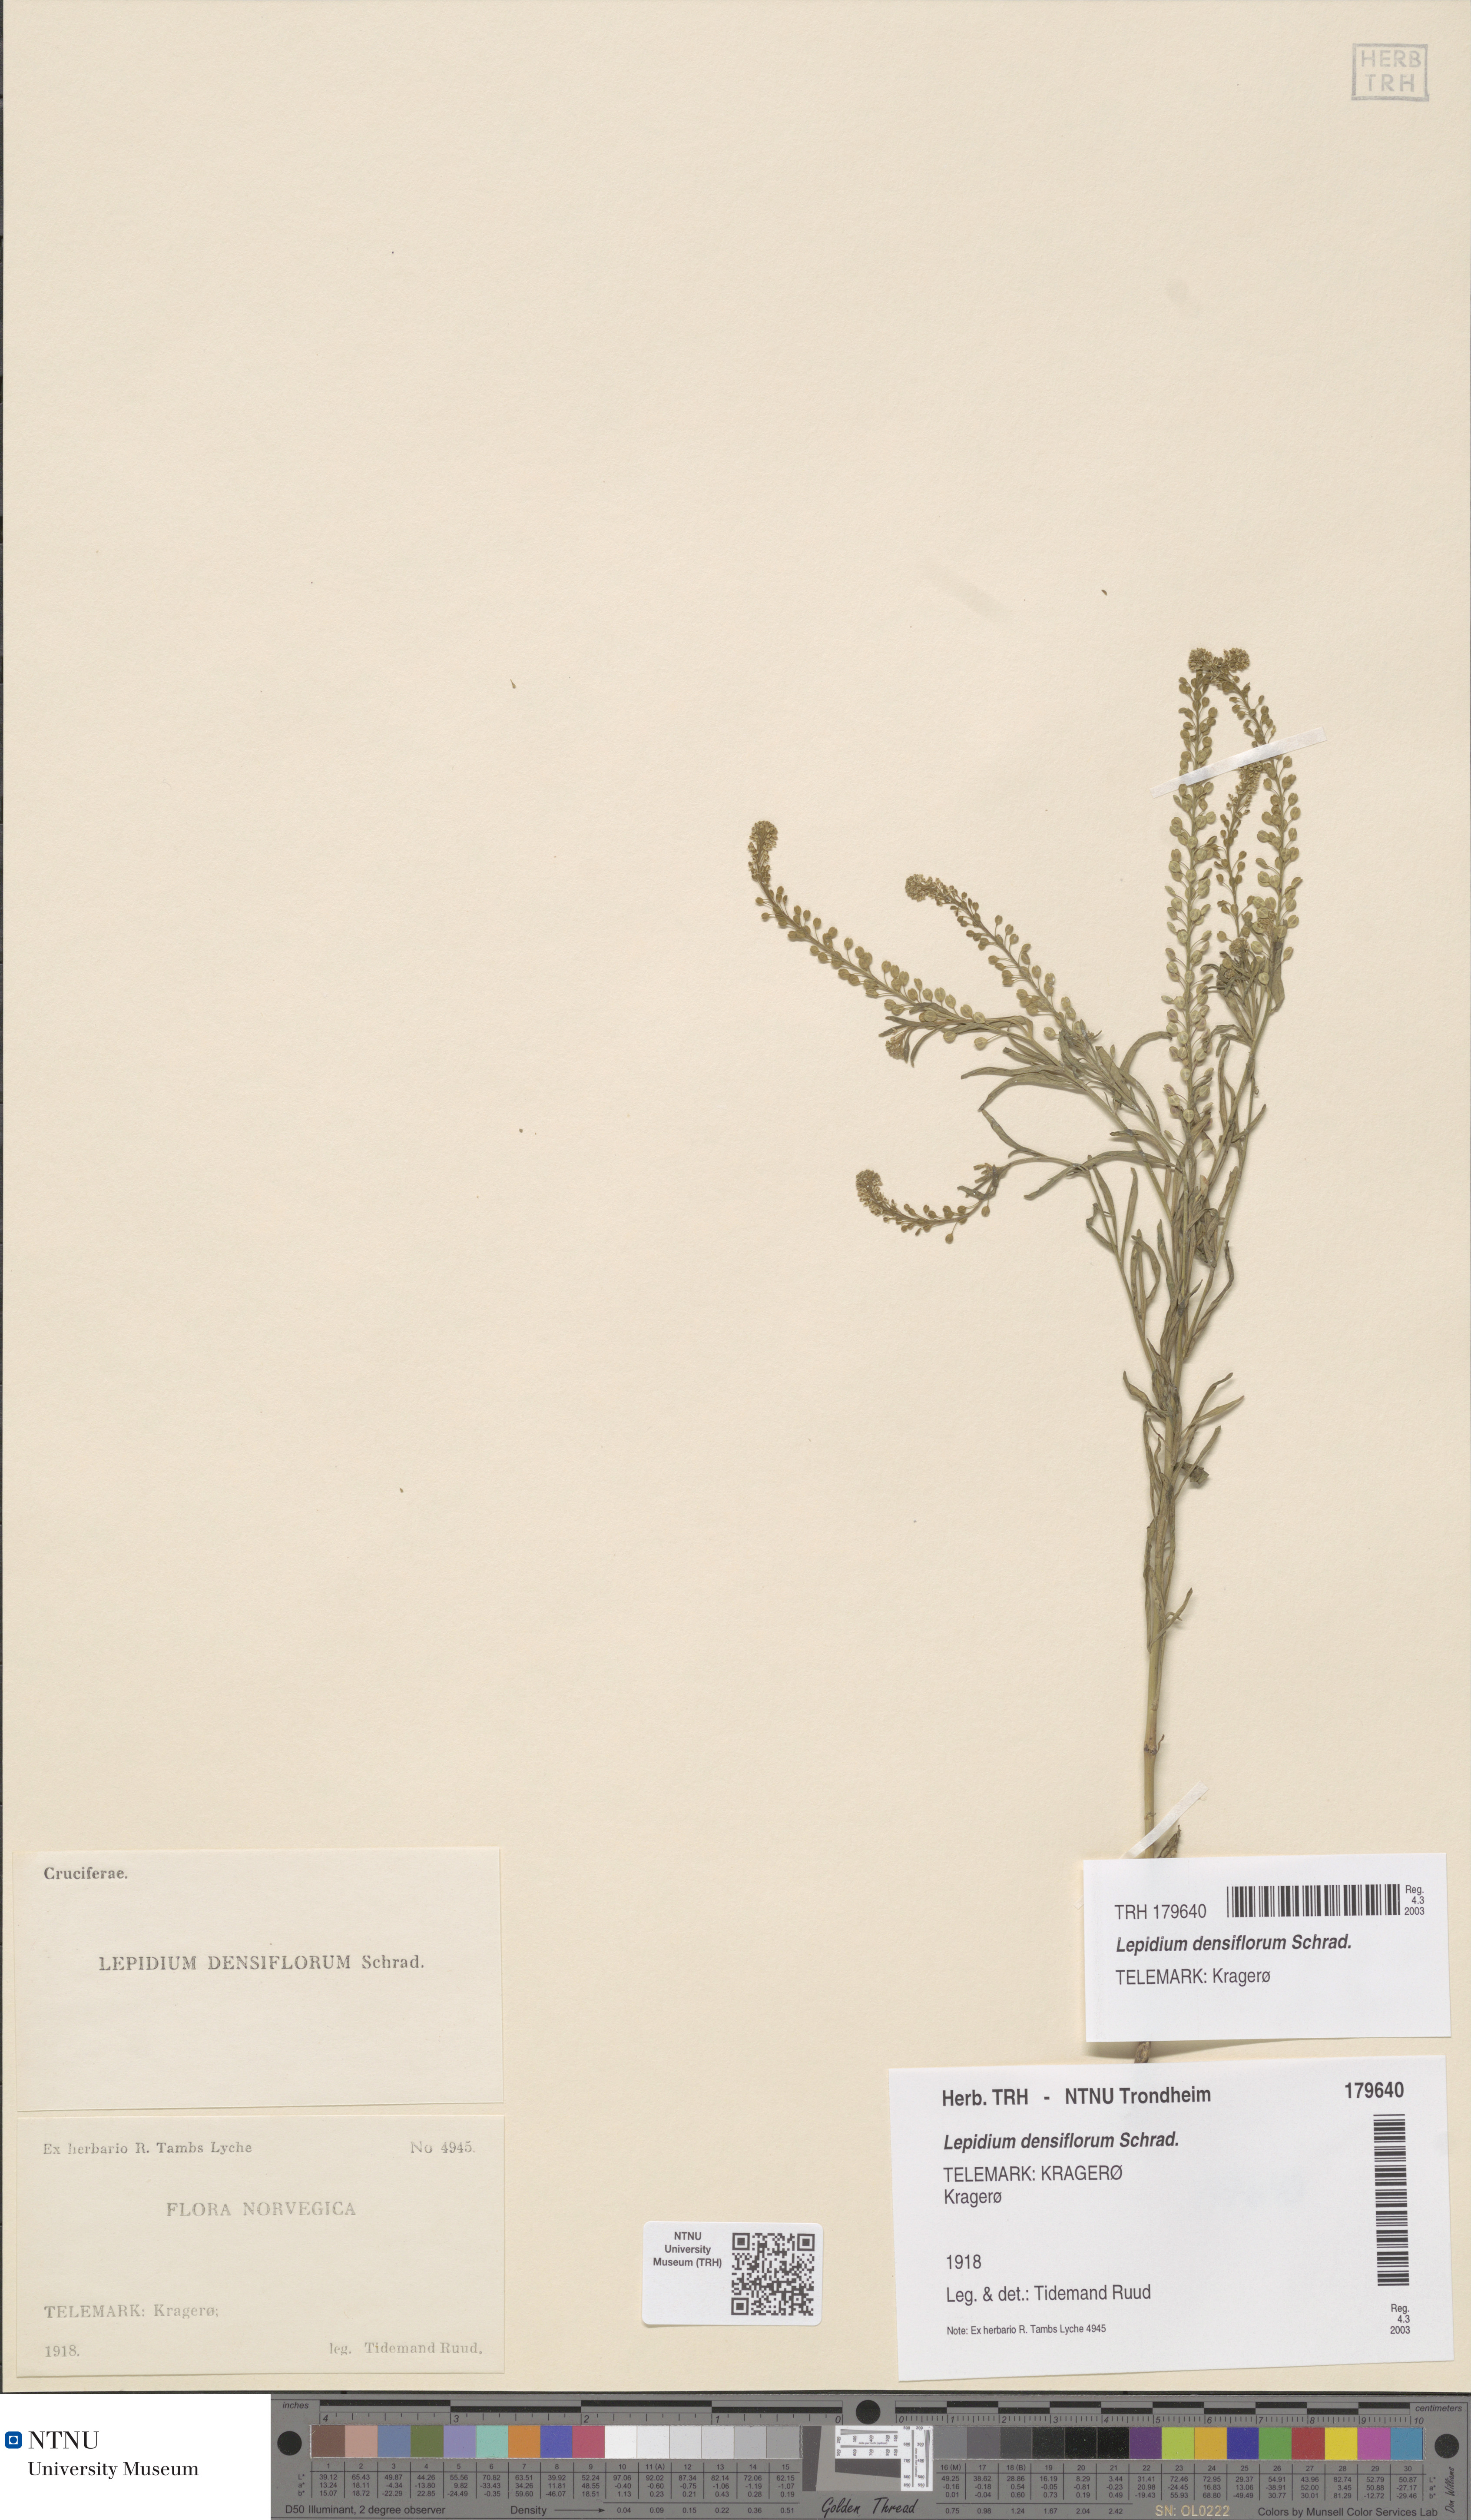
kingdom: Plantae
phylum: Tracheophyta
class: Magnoliopsida
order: Brassicales
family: Brassicaceae
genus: Lepidium
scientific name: Lepidium densiflorum
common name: Miner's pepperwort
